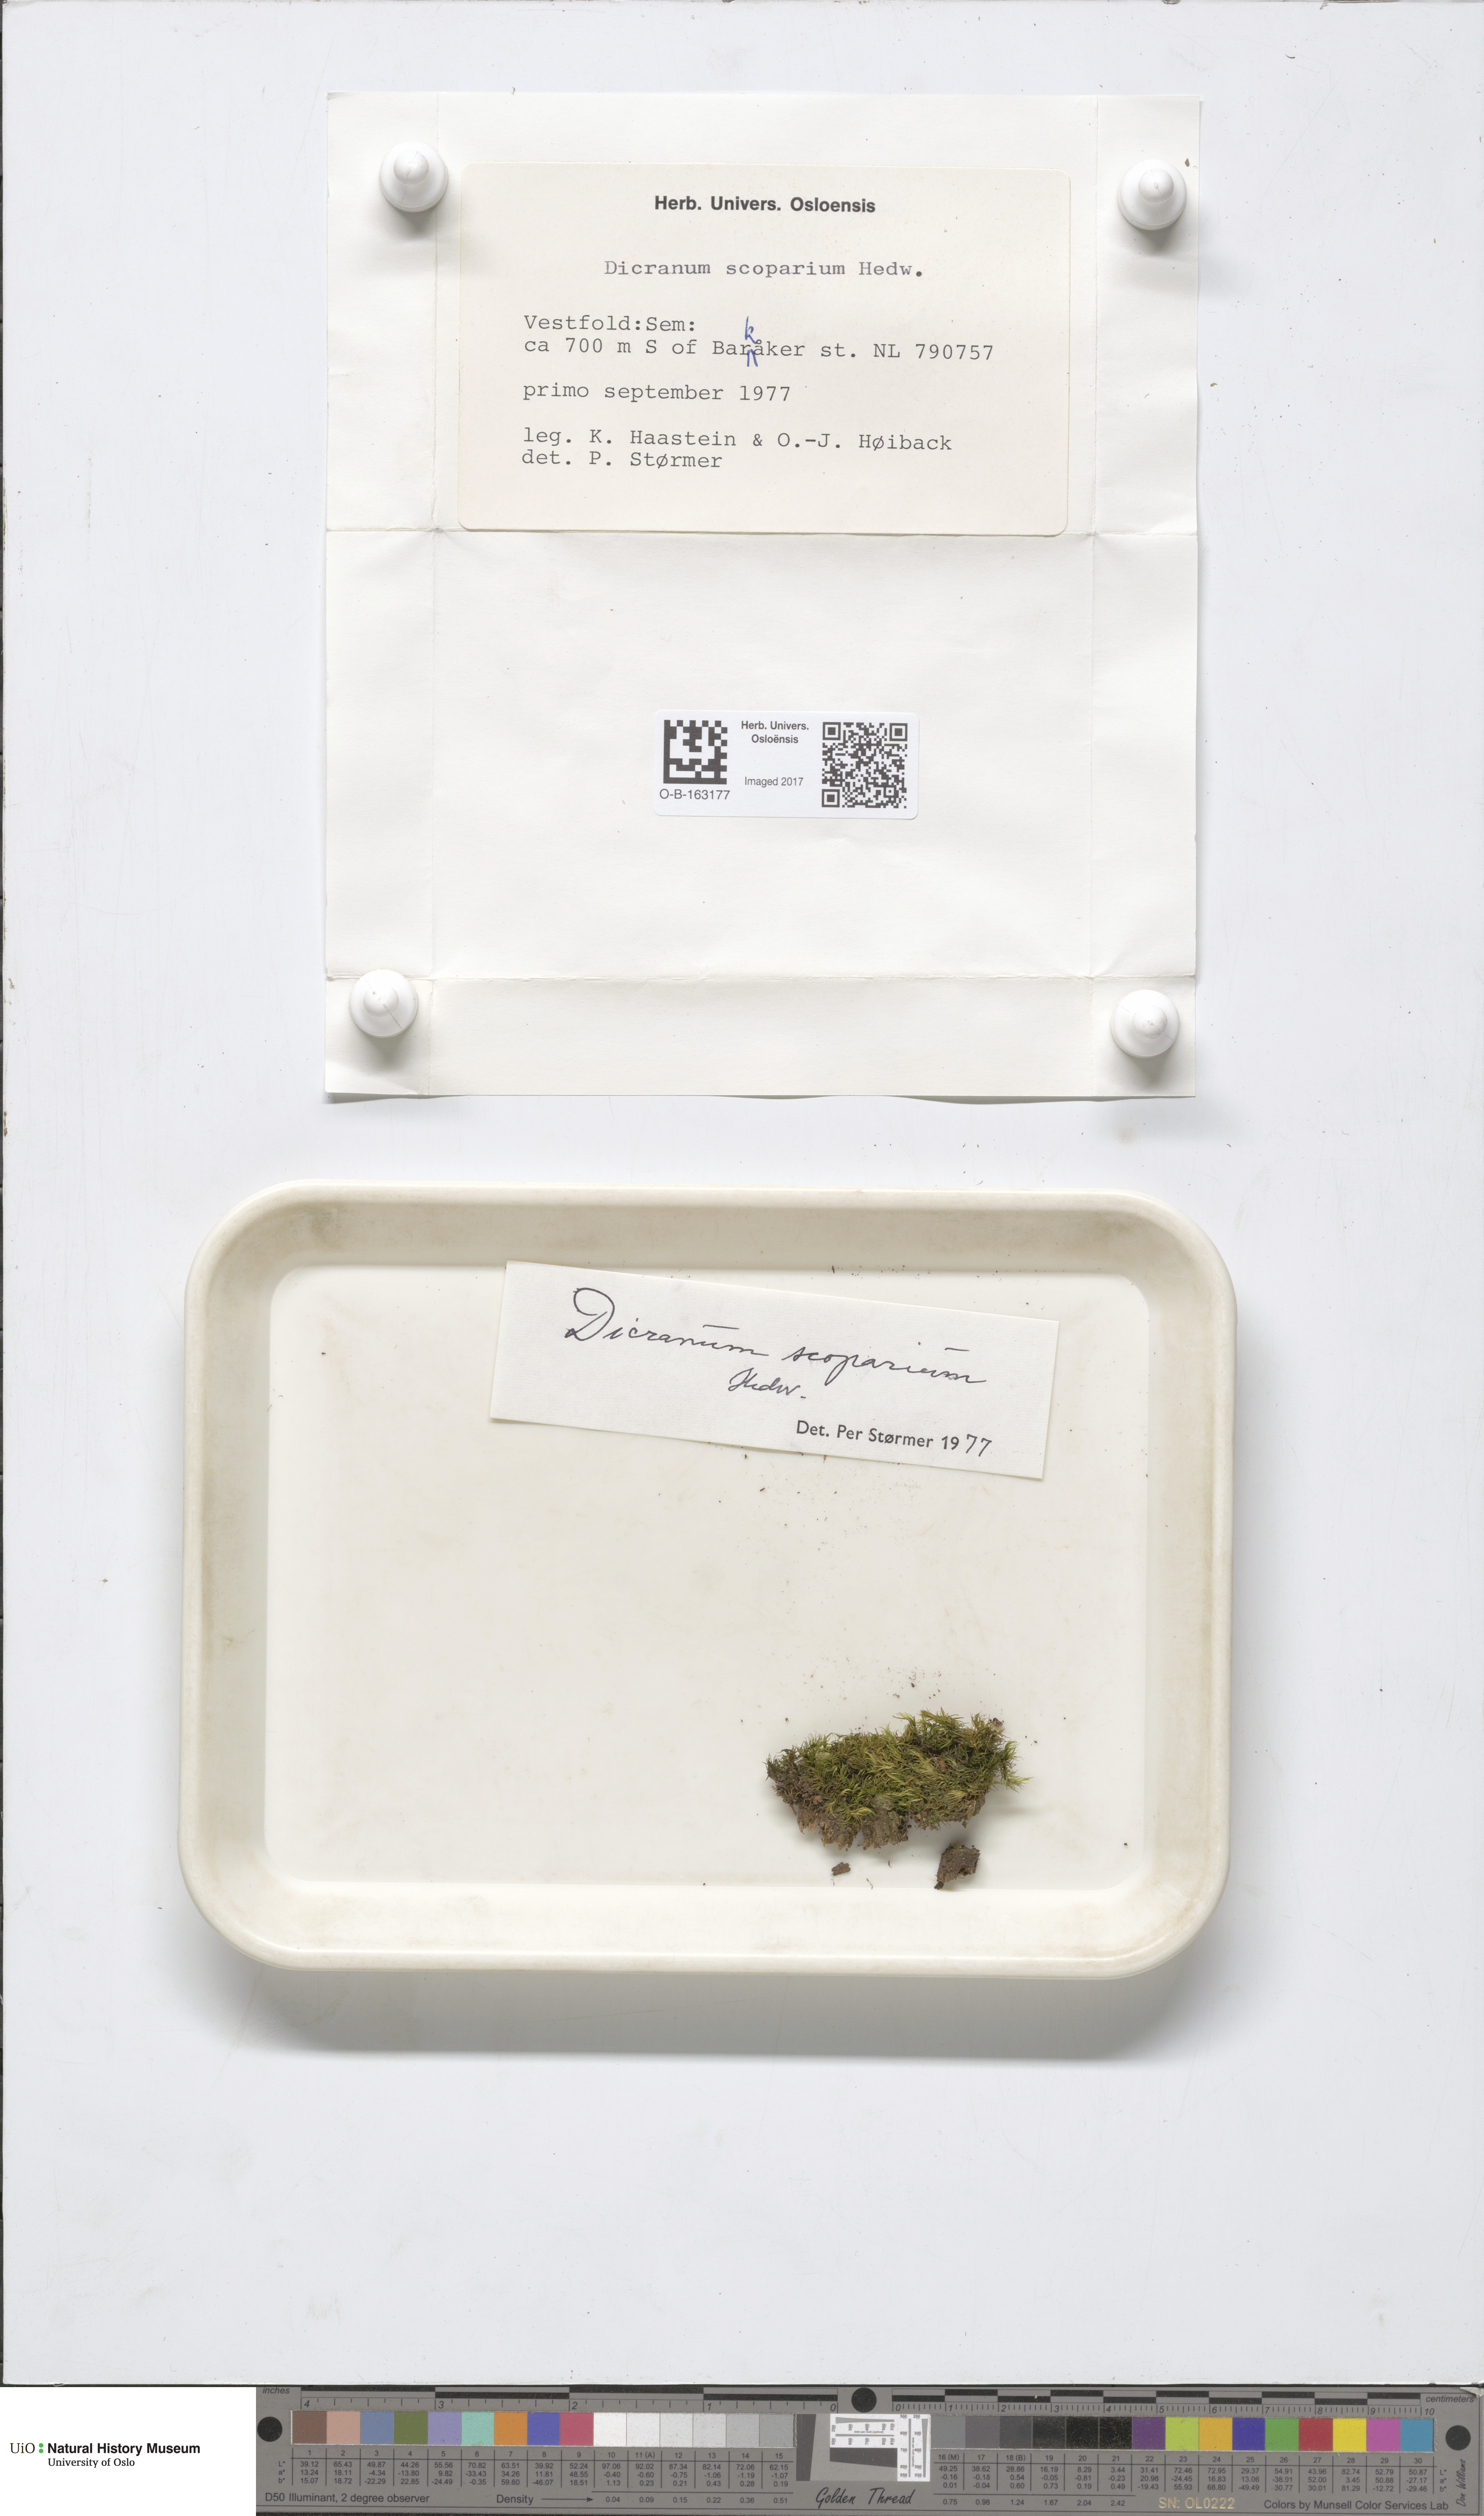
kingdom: Plantae
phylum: Bryophyta
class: Bryopsida
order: Dicranales
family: Dicranaceae
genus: Dicranum
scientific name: Dicranum scoparium
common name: Broom fork-moss
